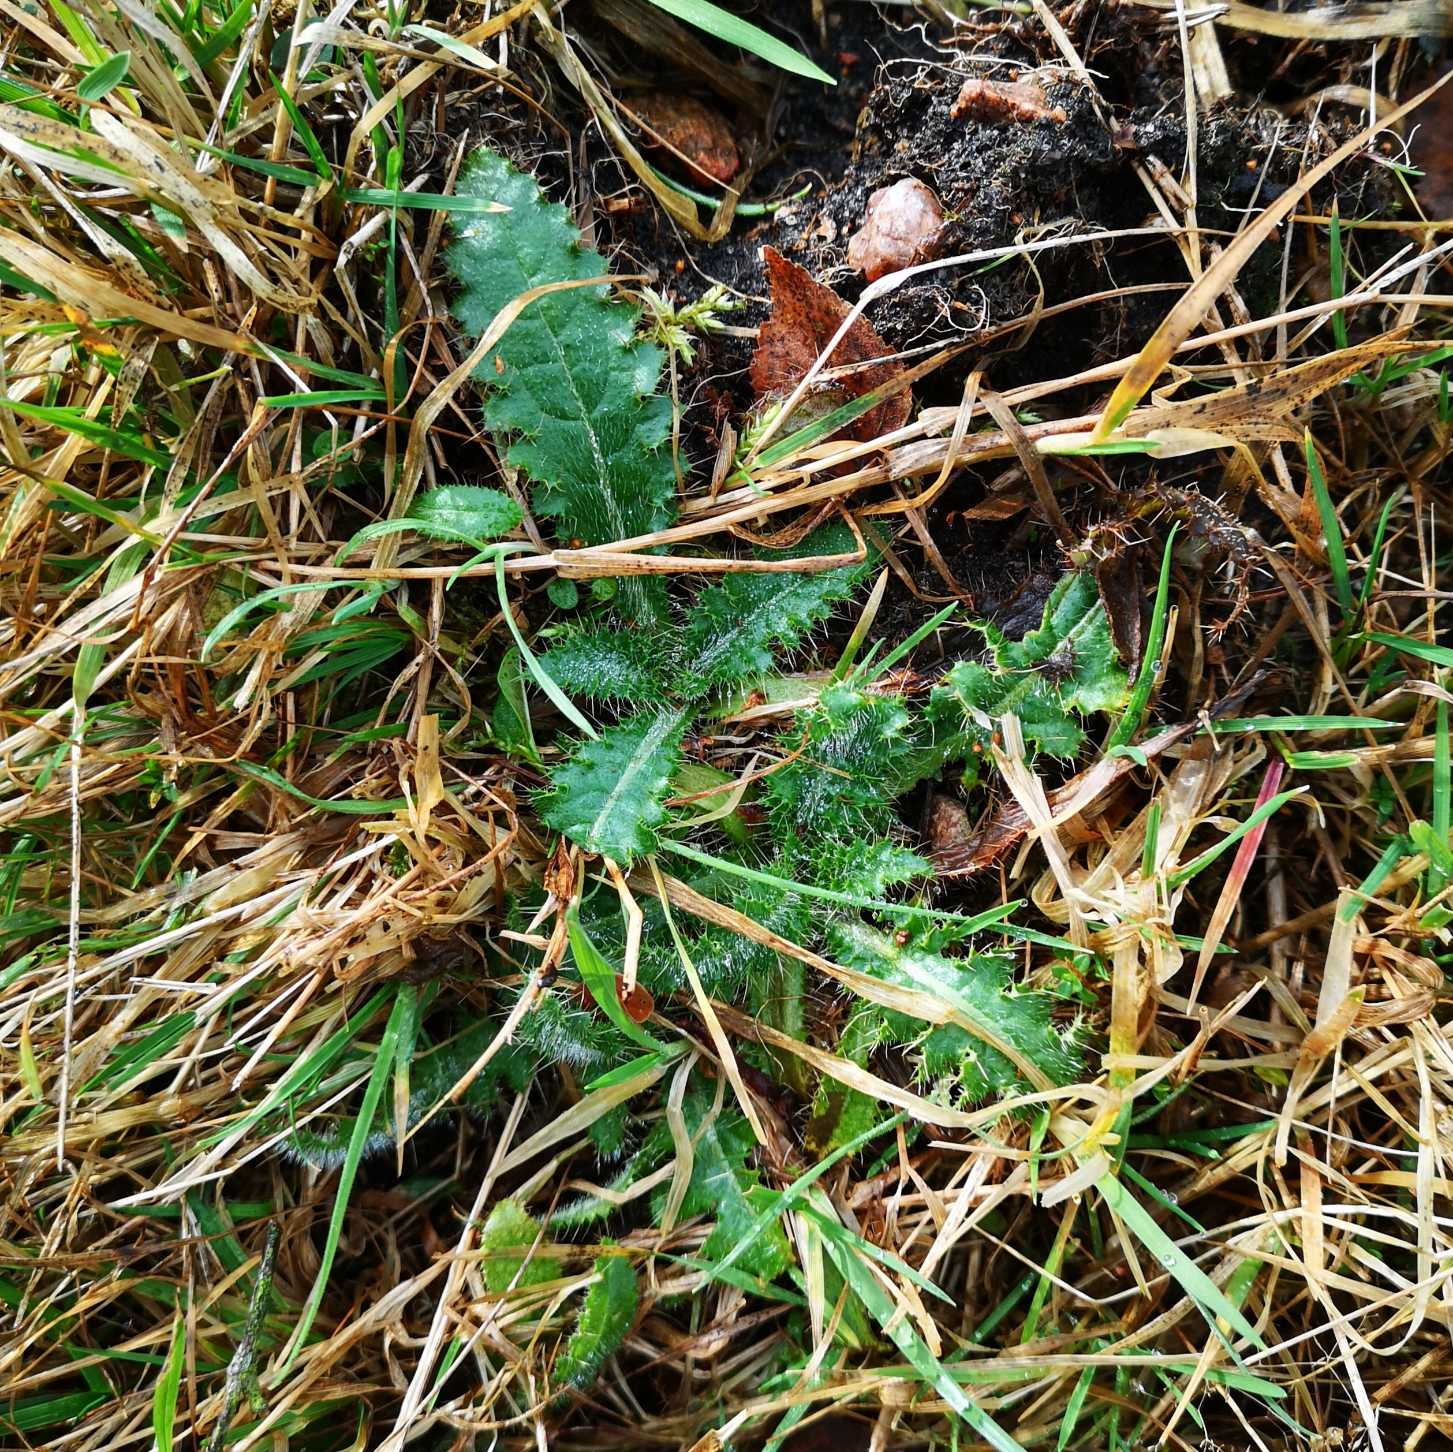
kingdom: Plantae
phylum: Tracheophyta
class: Magnoliopsida
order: Asterales
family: Asteraceae
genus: Cirsium
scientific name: Cirsium palustre
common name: Kær-tidsel
